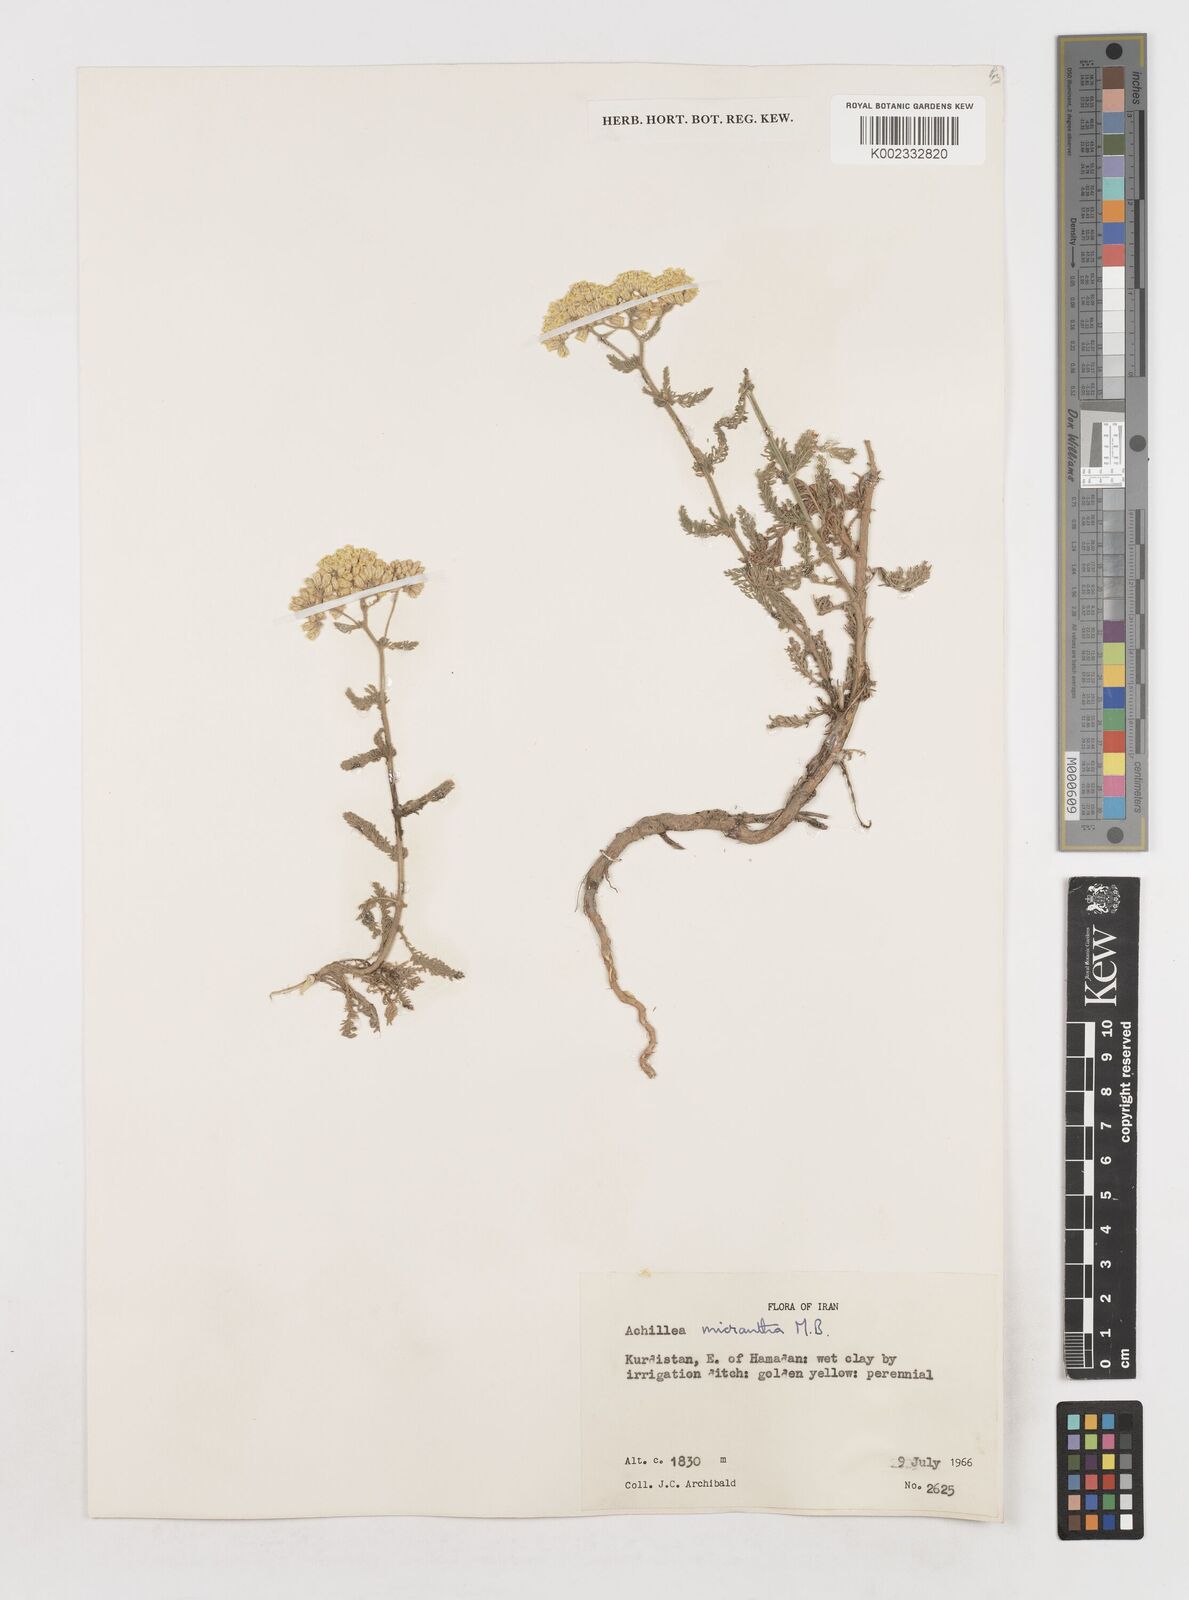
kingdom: Plantae
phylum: Tracheophyta
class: Magnoliopsida
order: Asterales
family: Asteraceae
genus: Achillea
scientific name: Achillea arabica
